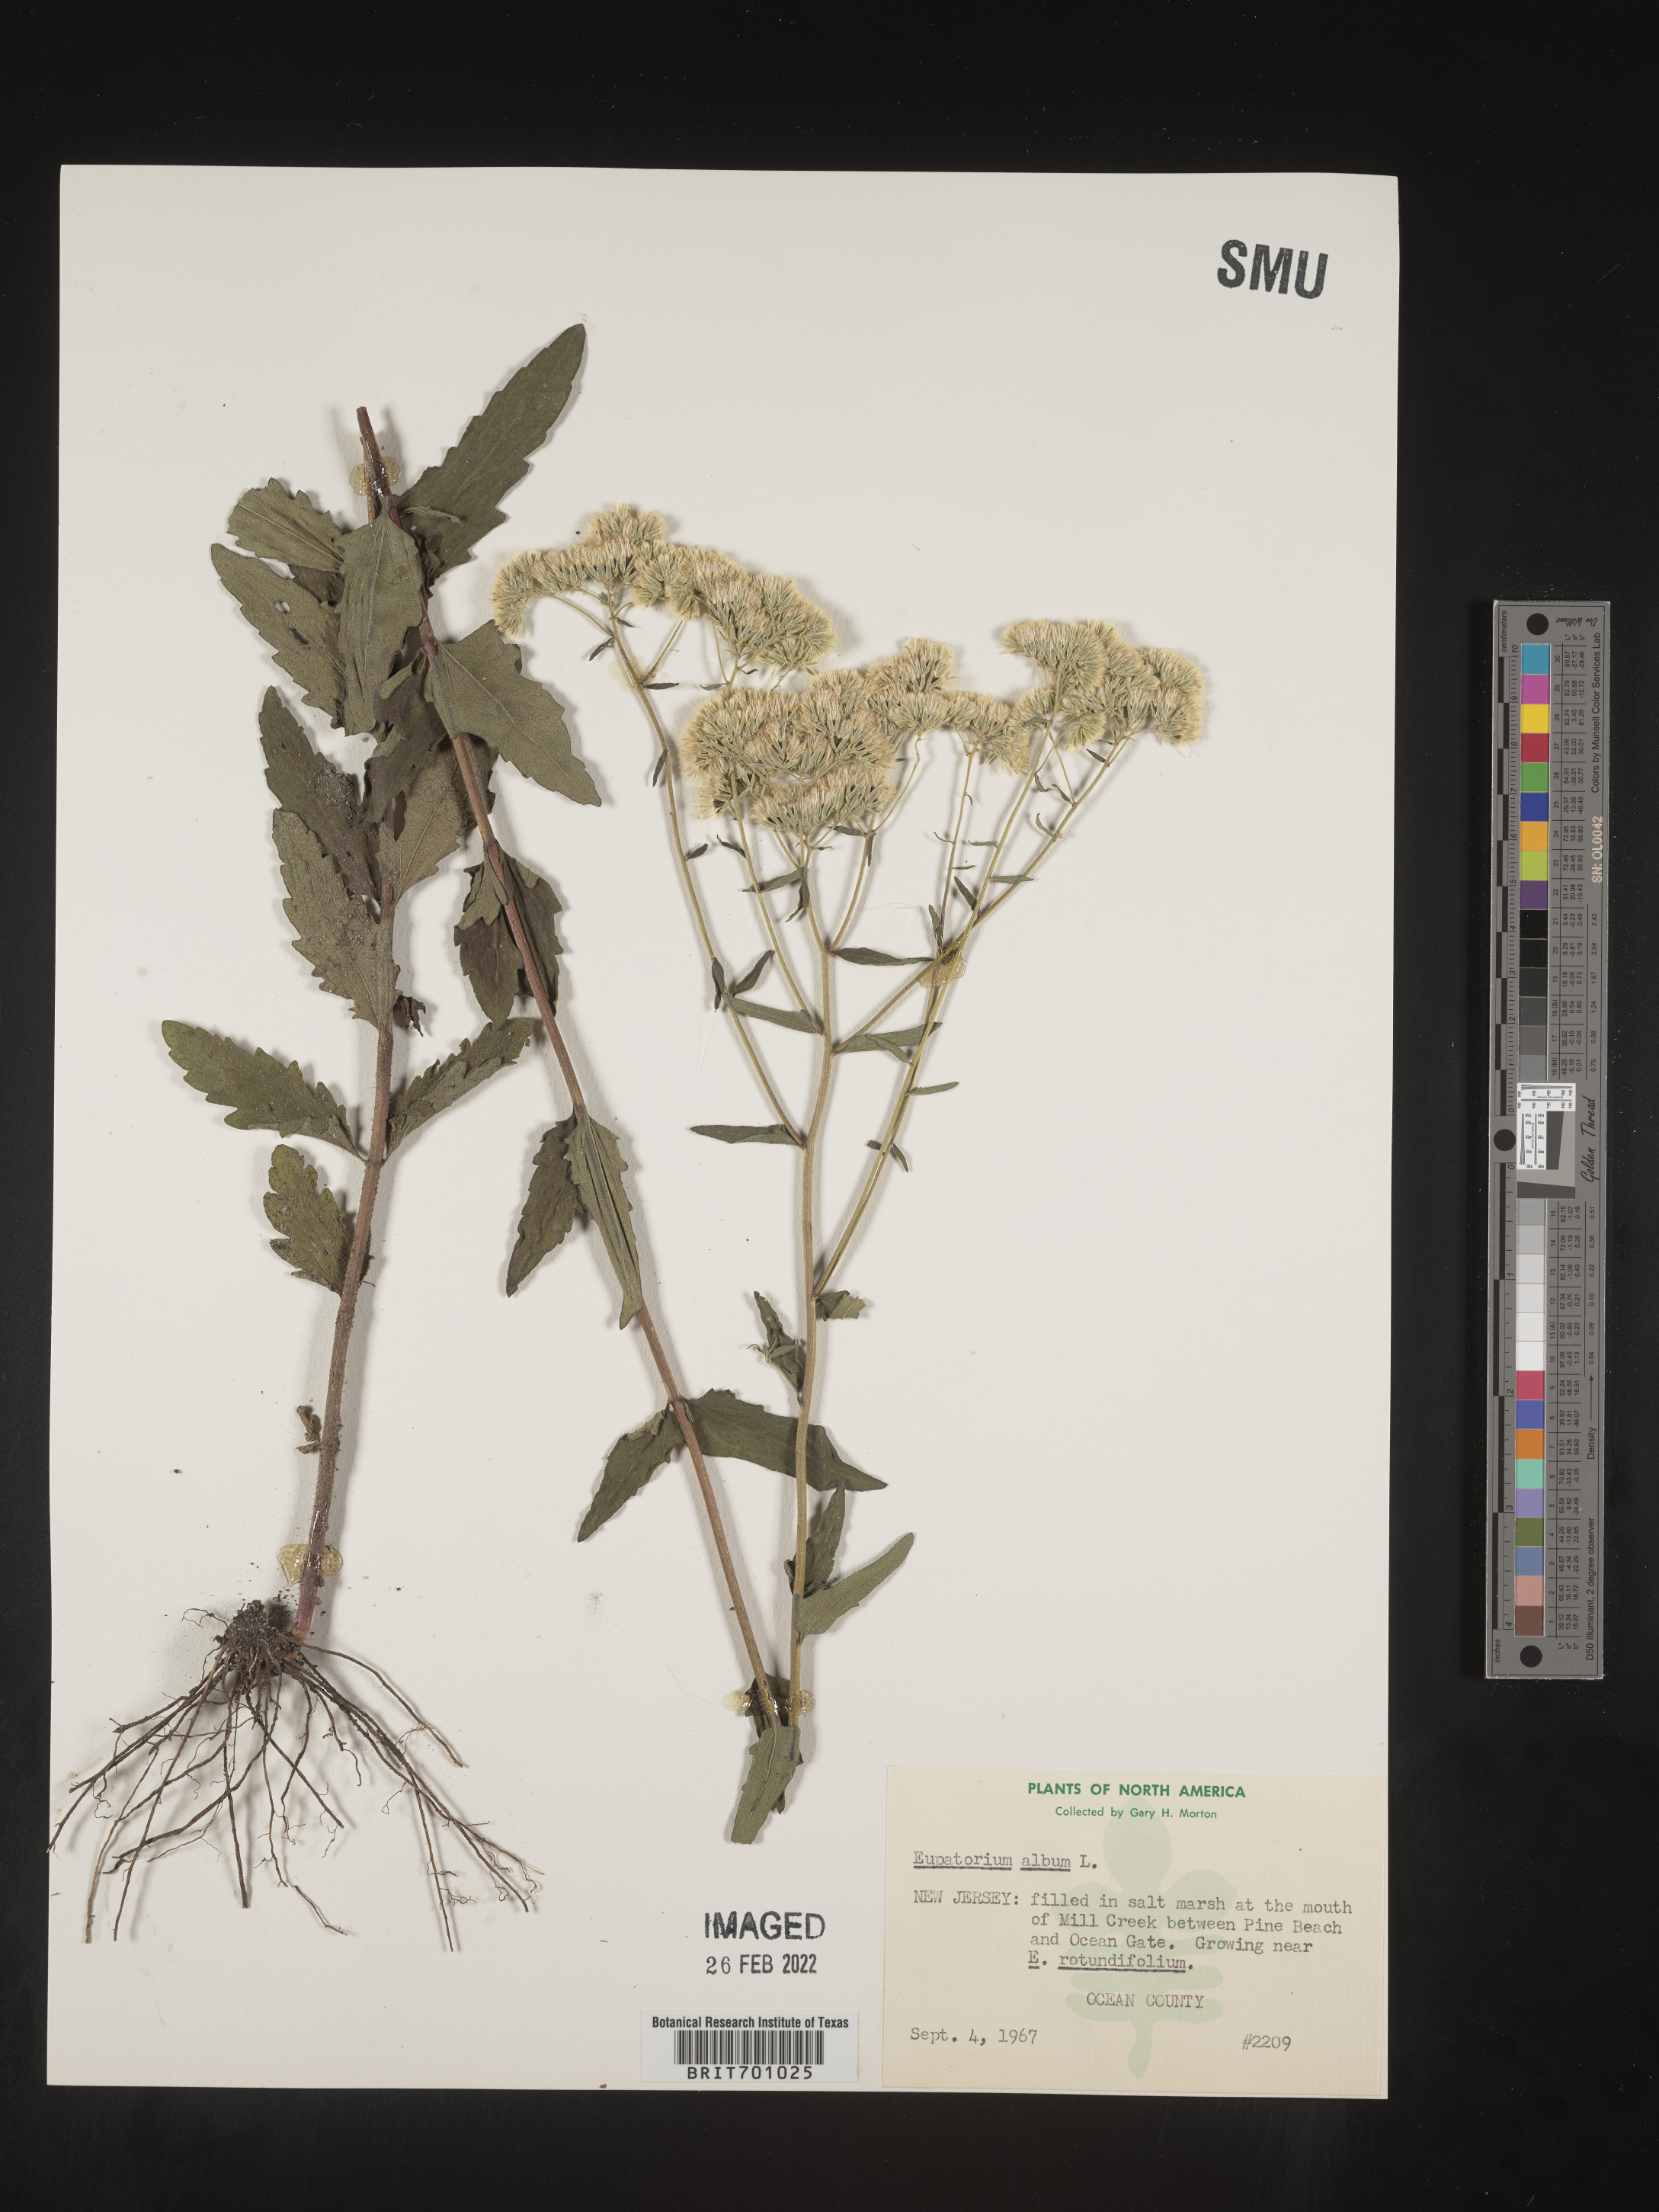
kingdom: Plantae
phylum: Tracheophyta
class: Magnoliopsida
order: Asterales
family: Asteraceae
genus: Eupatorium
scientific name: Eupatorium album
